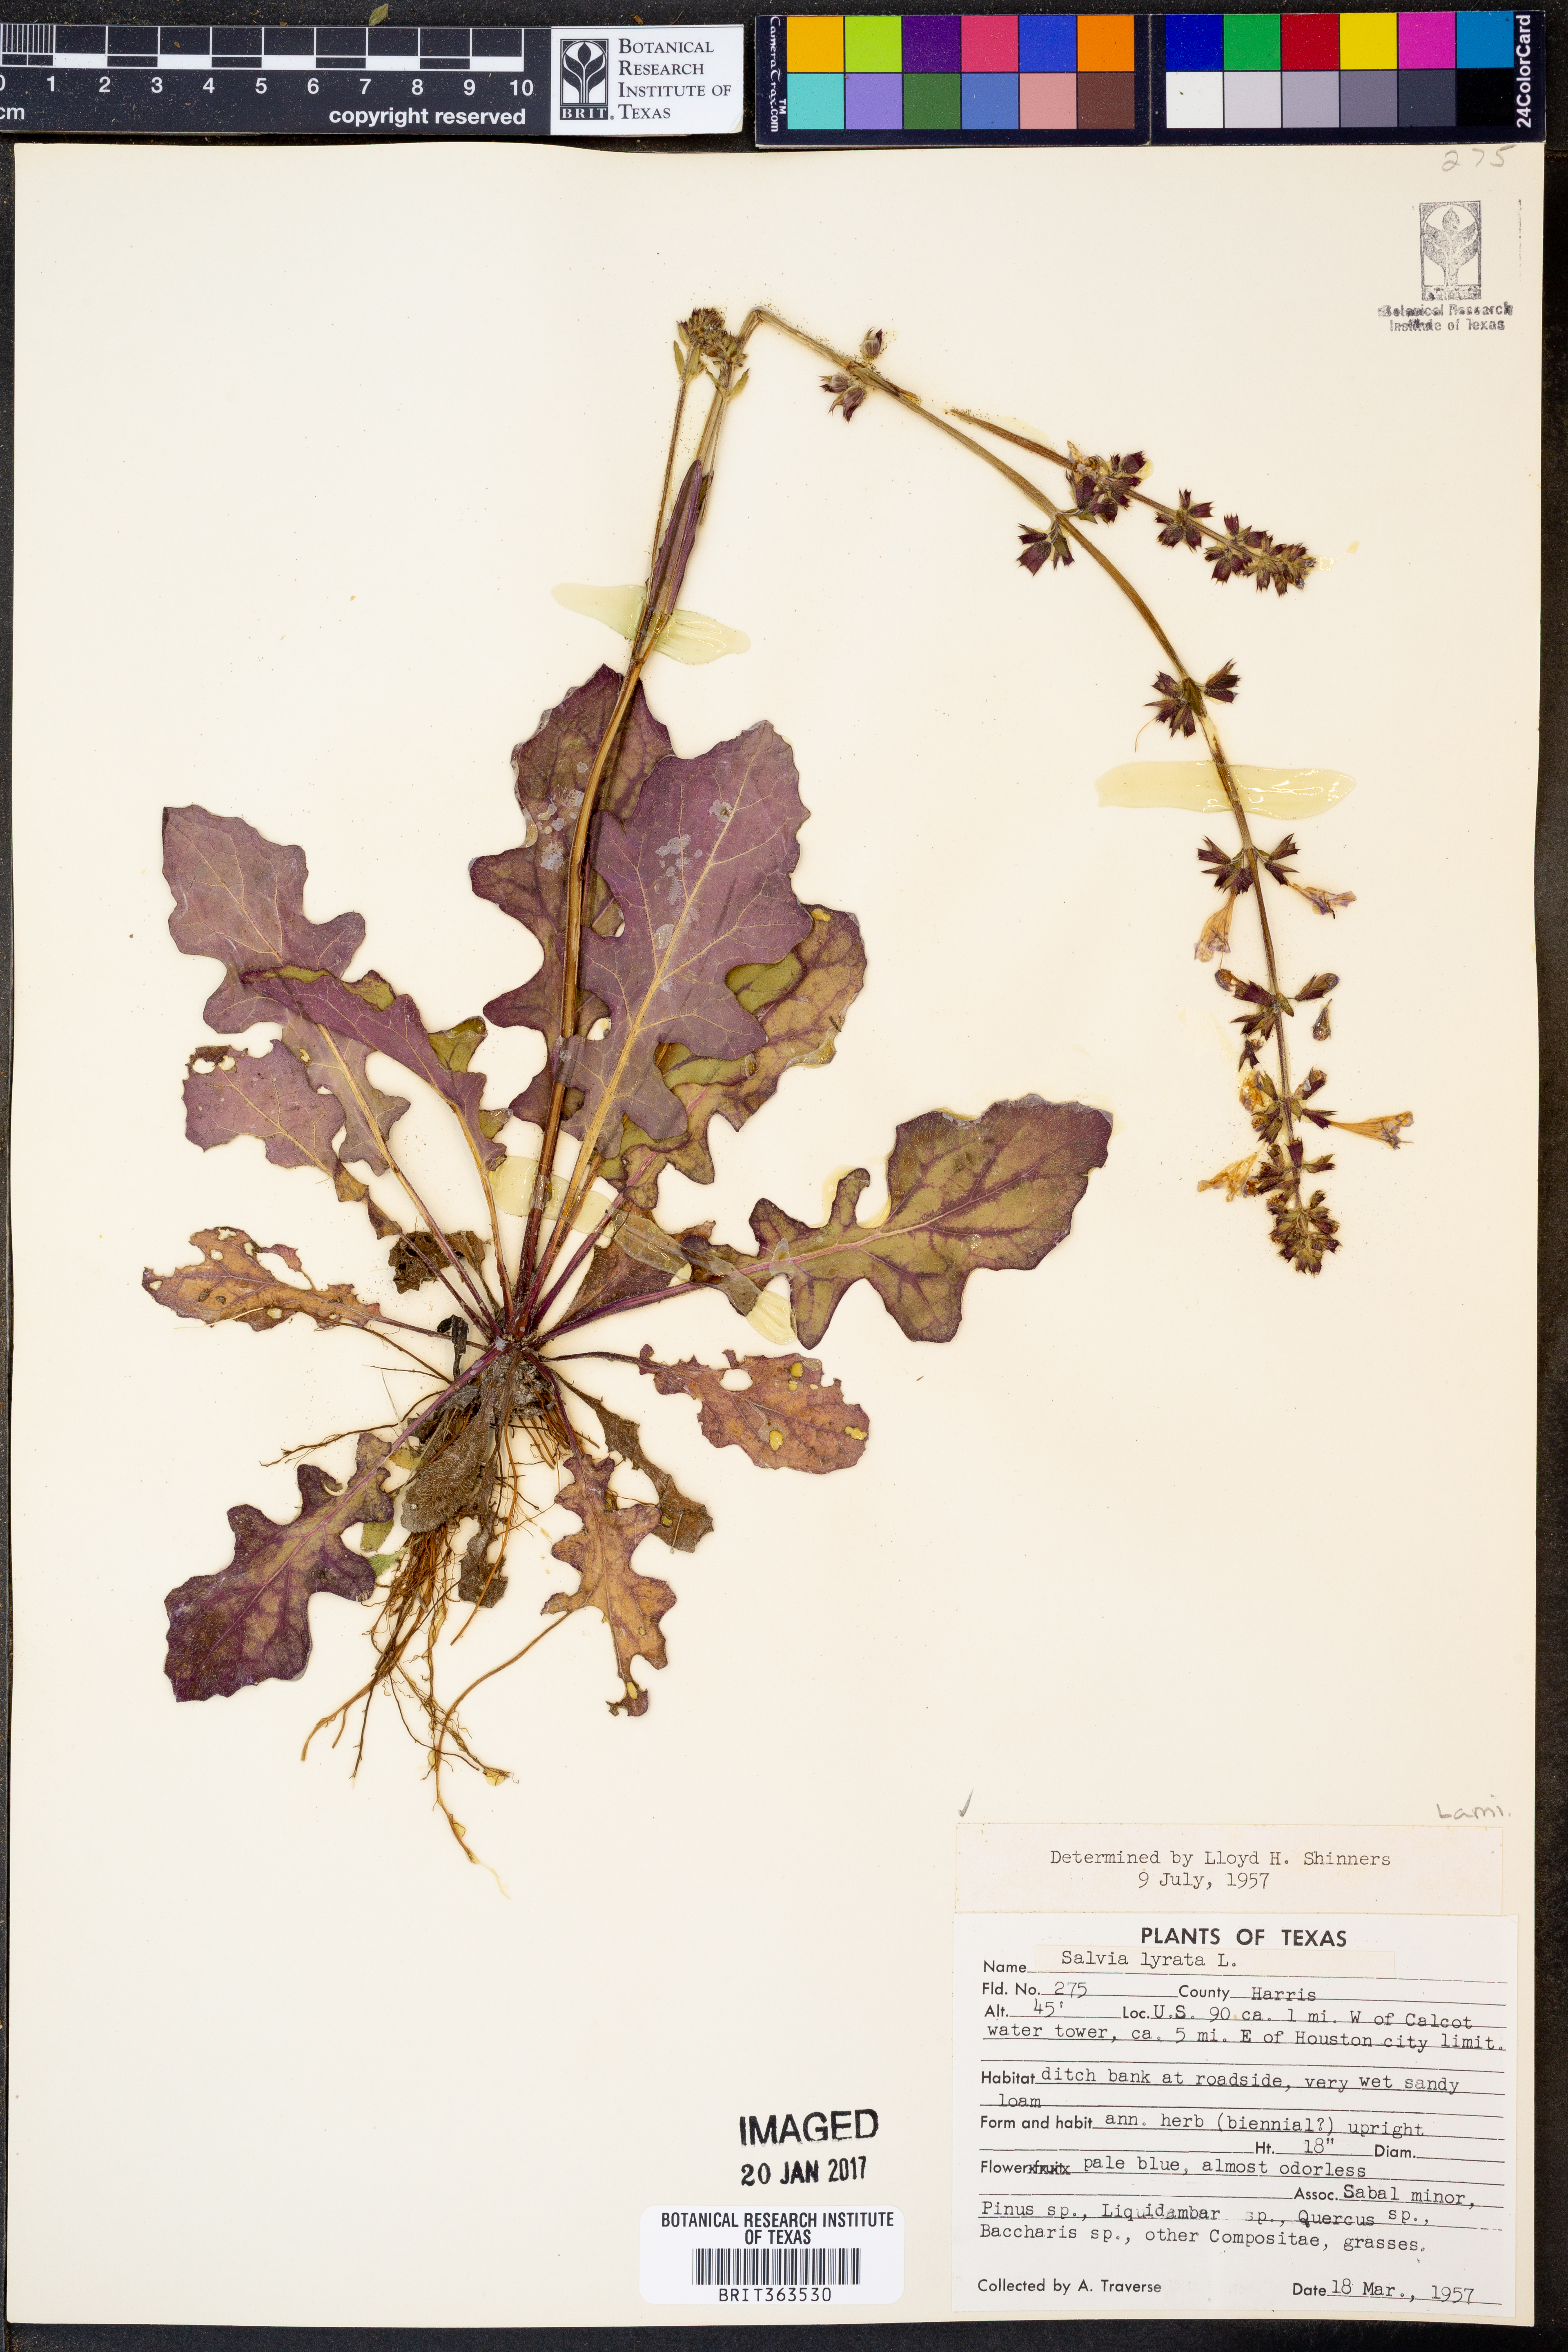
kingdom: Plantae
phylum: Tracheophyta
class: Magnoliopsida
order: Lamiales
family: Lamiaceae
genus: Salvia
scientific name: Salvia lyrata
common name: Cancerweed
